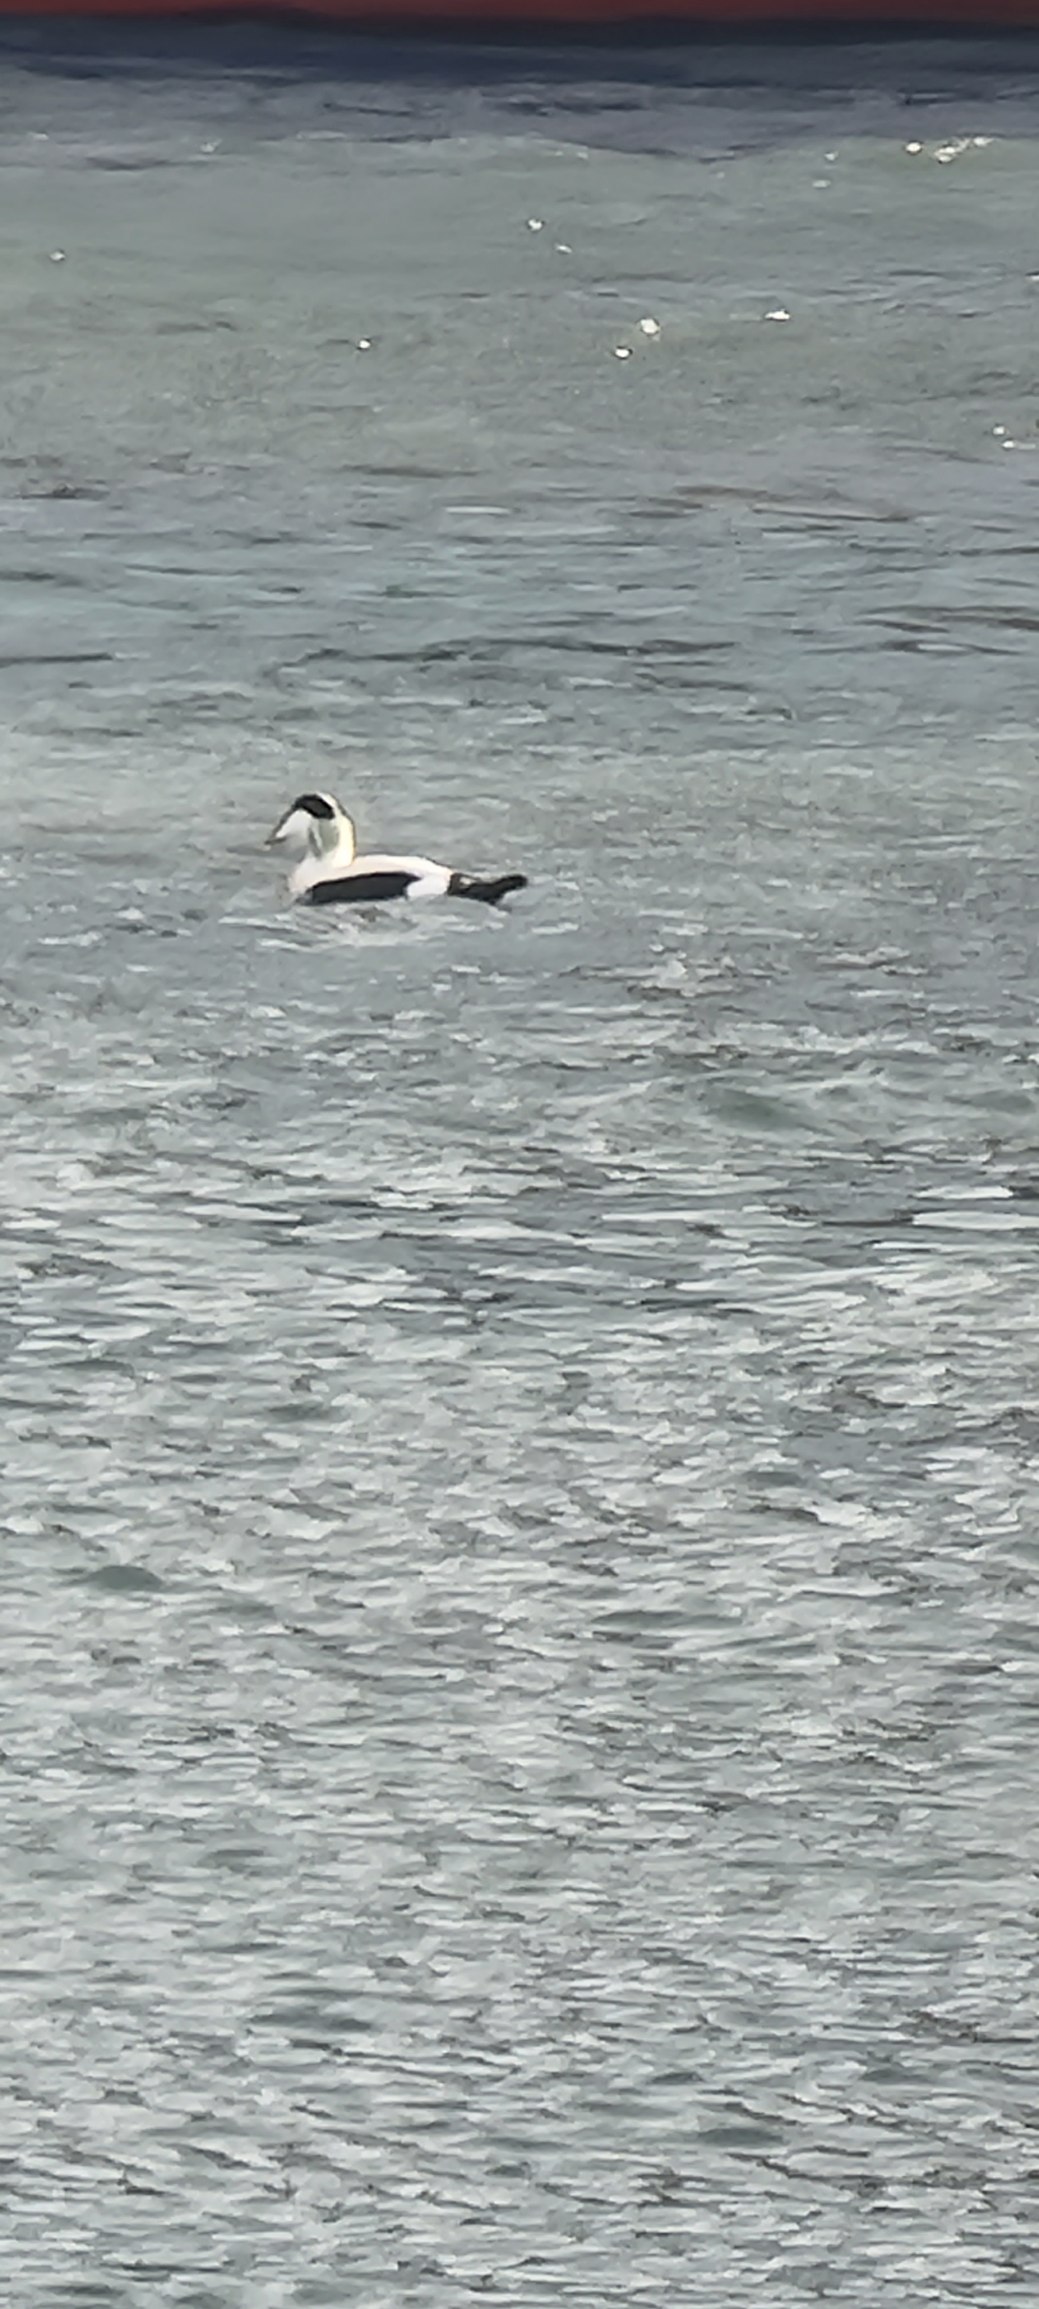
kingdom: Animalia
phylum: Chordata
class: Aves
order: Anseriformes
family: Anatidae
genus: Somateria
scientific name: Somateria mollissima
